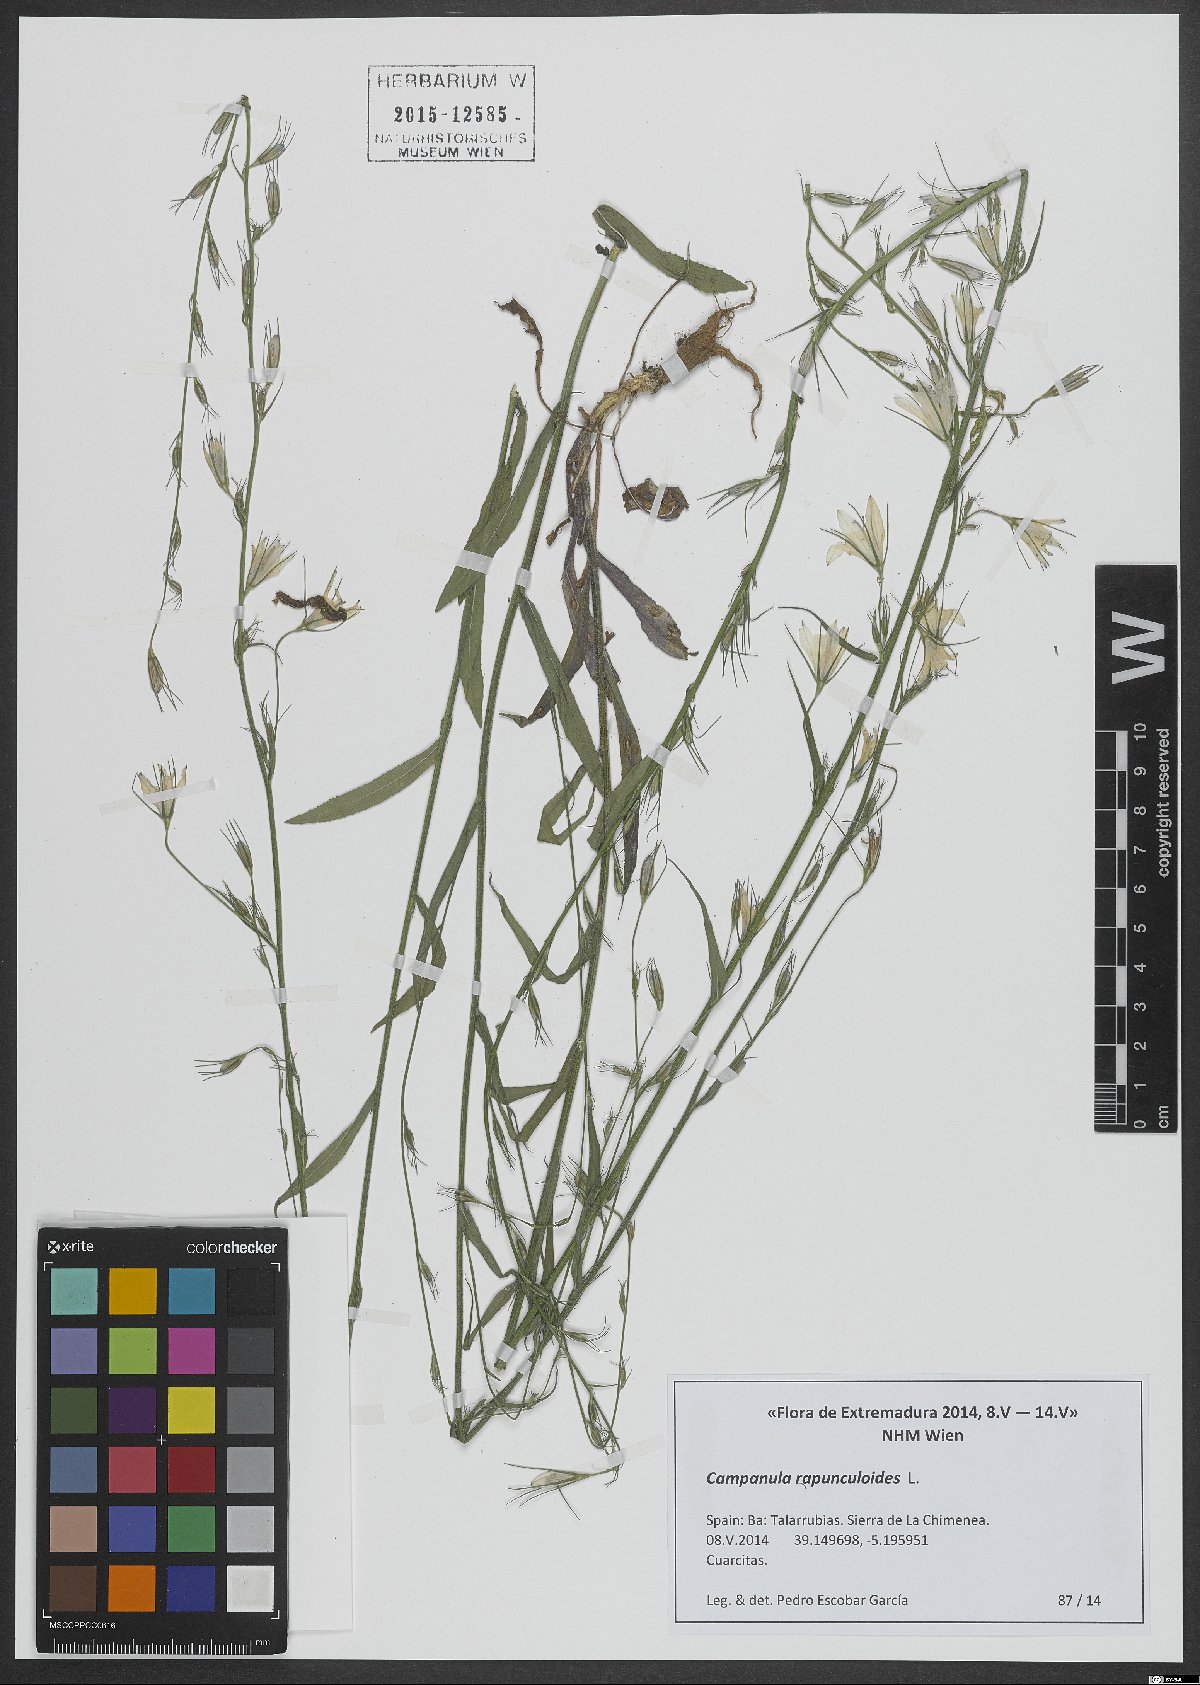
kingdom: Plantae
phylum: Tracheophyta
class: Magnoliopsida
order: Asterales
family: Campanulaceae
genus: Campanula
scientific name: Campanula rapunculoides
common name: Creeping bellflower
